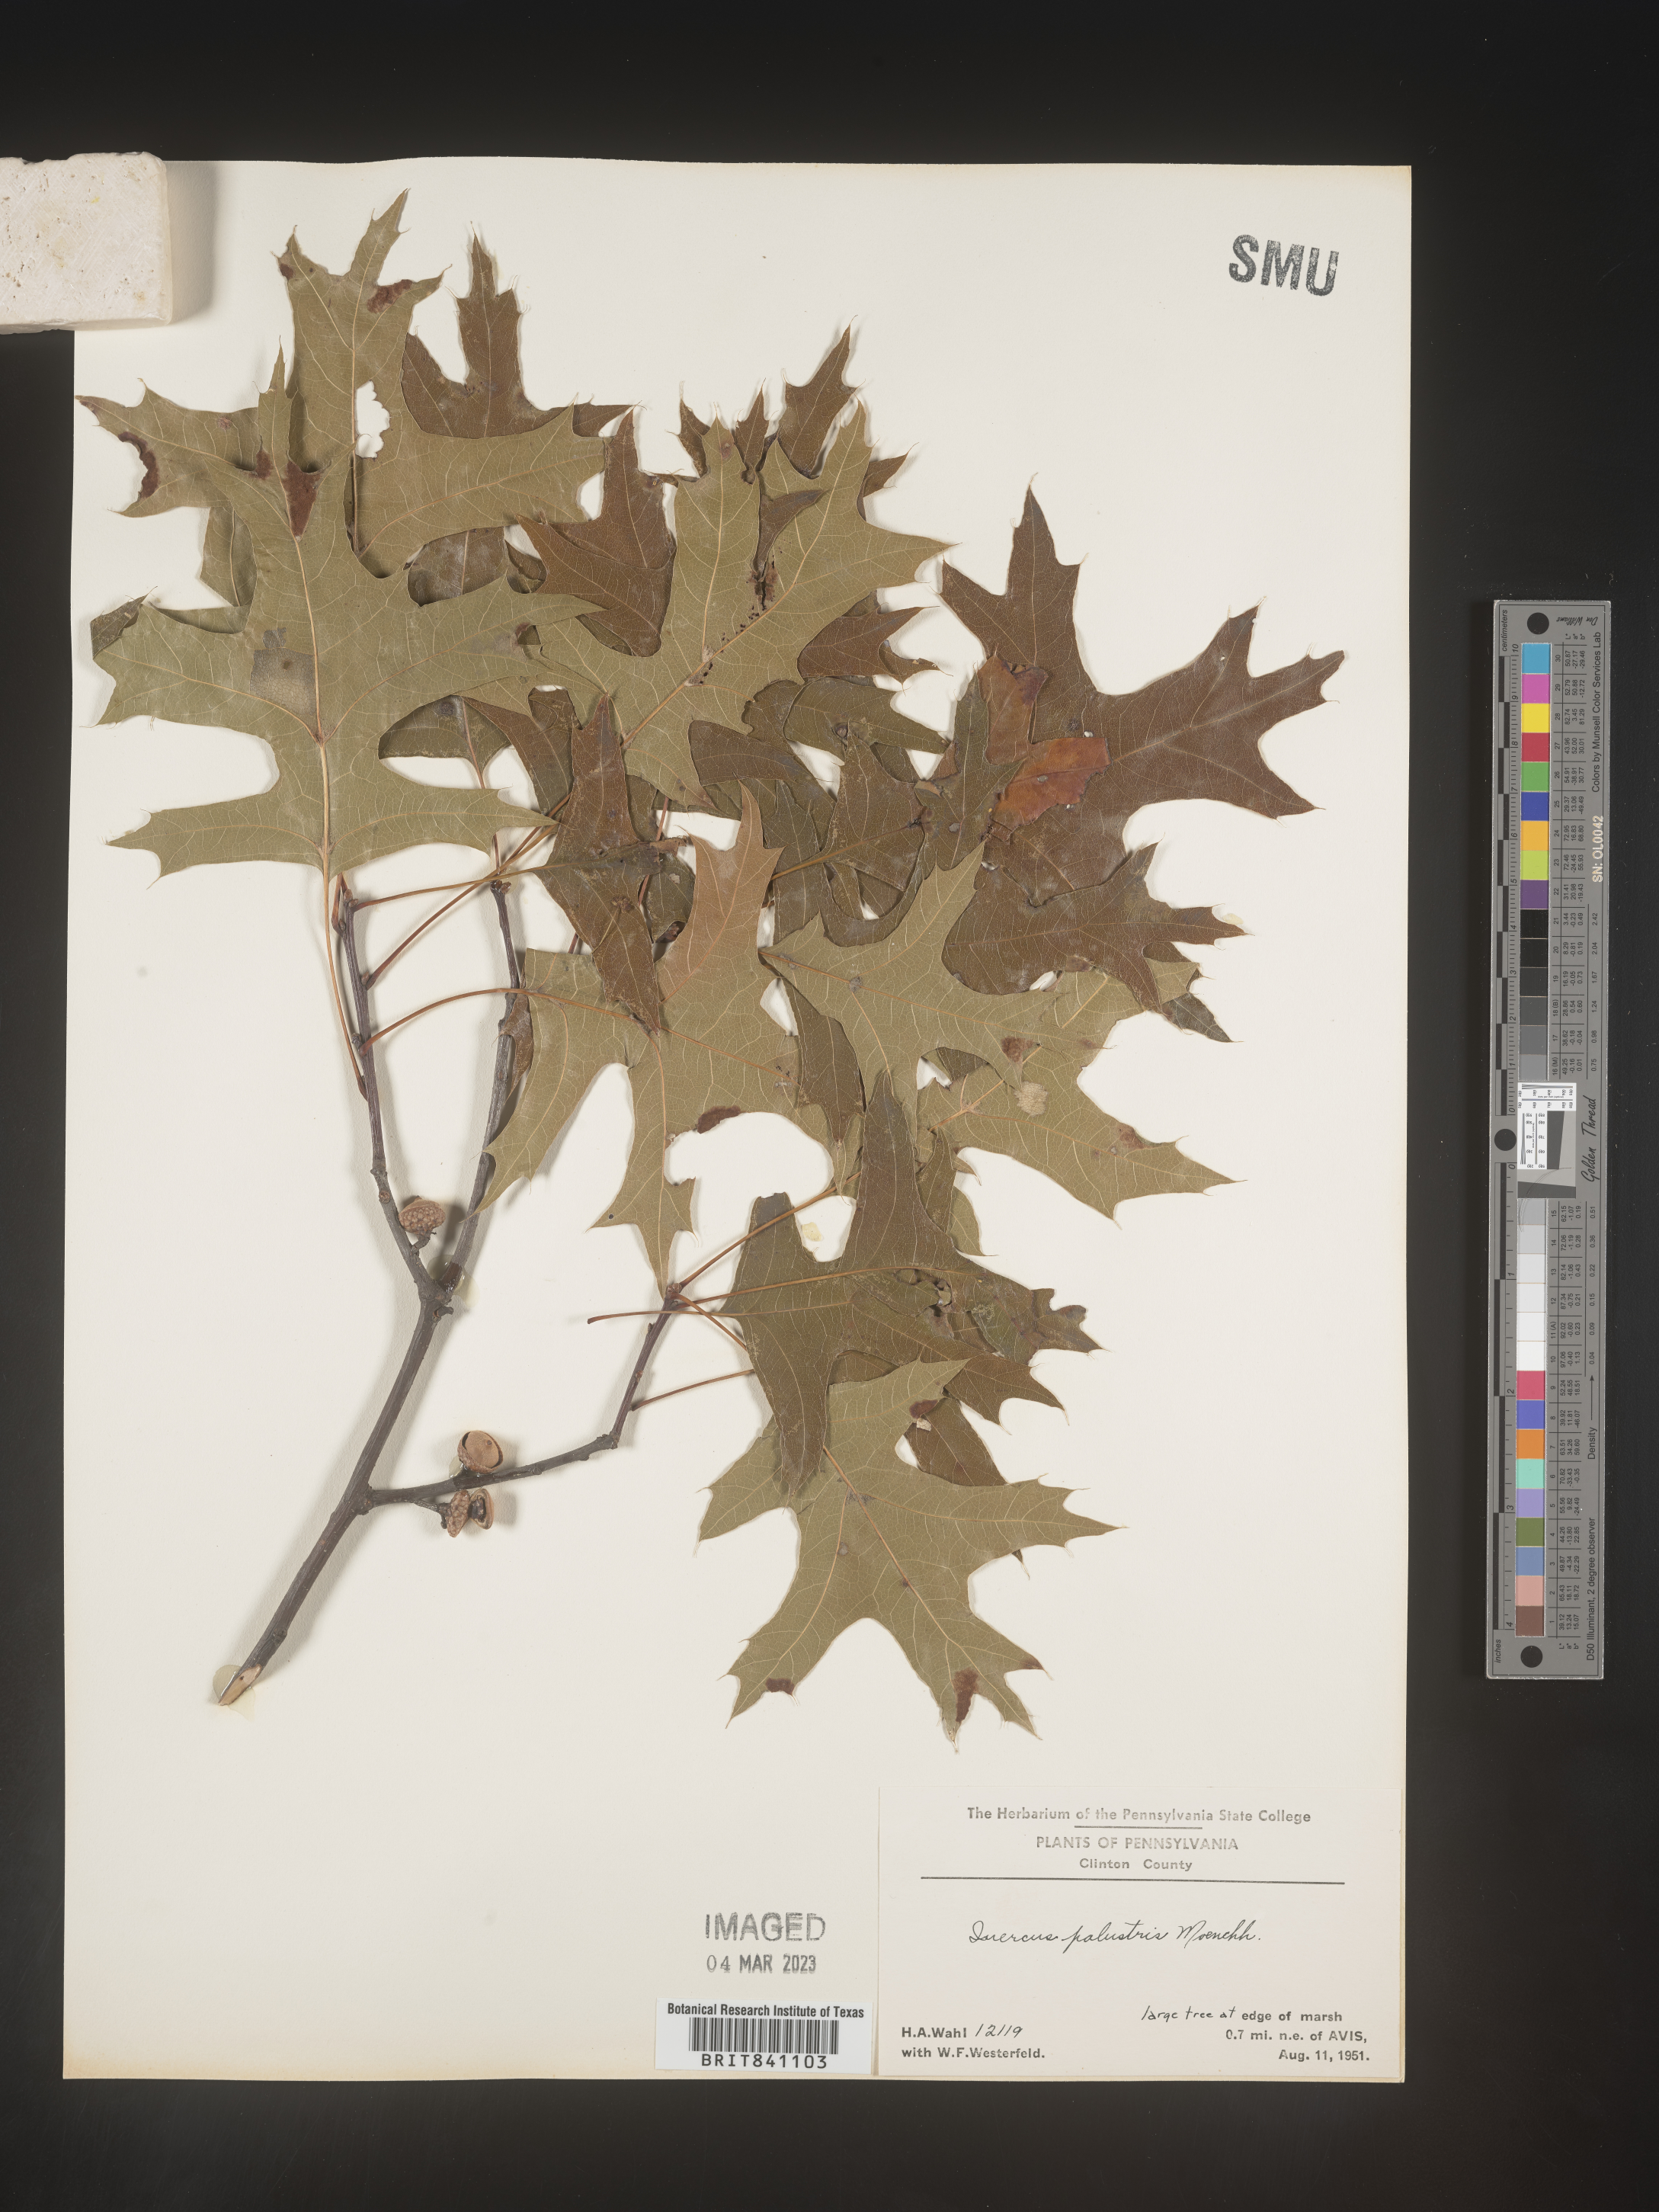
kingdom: Plantae
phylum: Tracheophyta
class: Magnoliopsida
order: Fagales
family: Fagaceae
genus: Quercus
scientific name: Quercus palustris
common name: Pin oak
